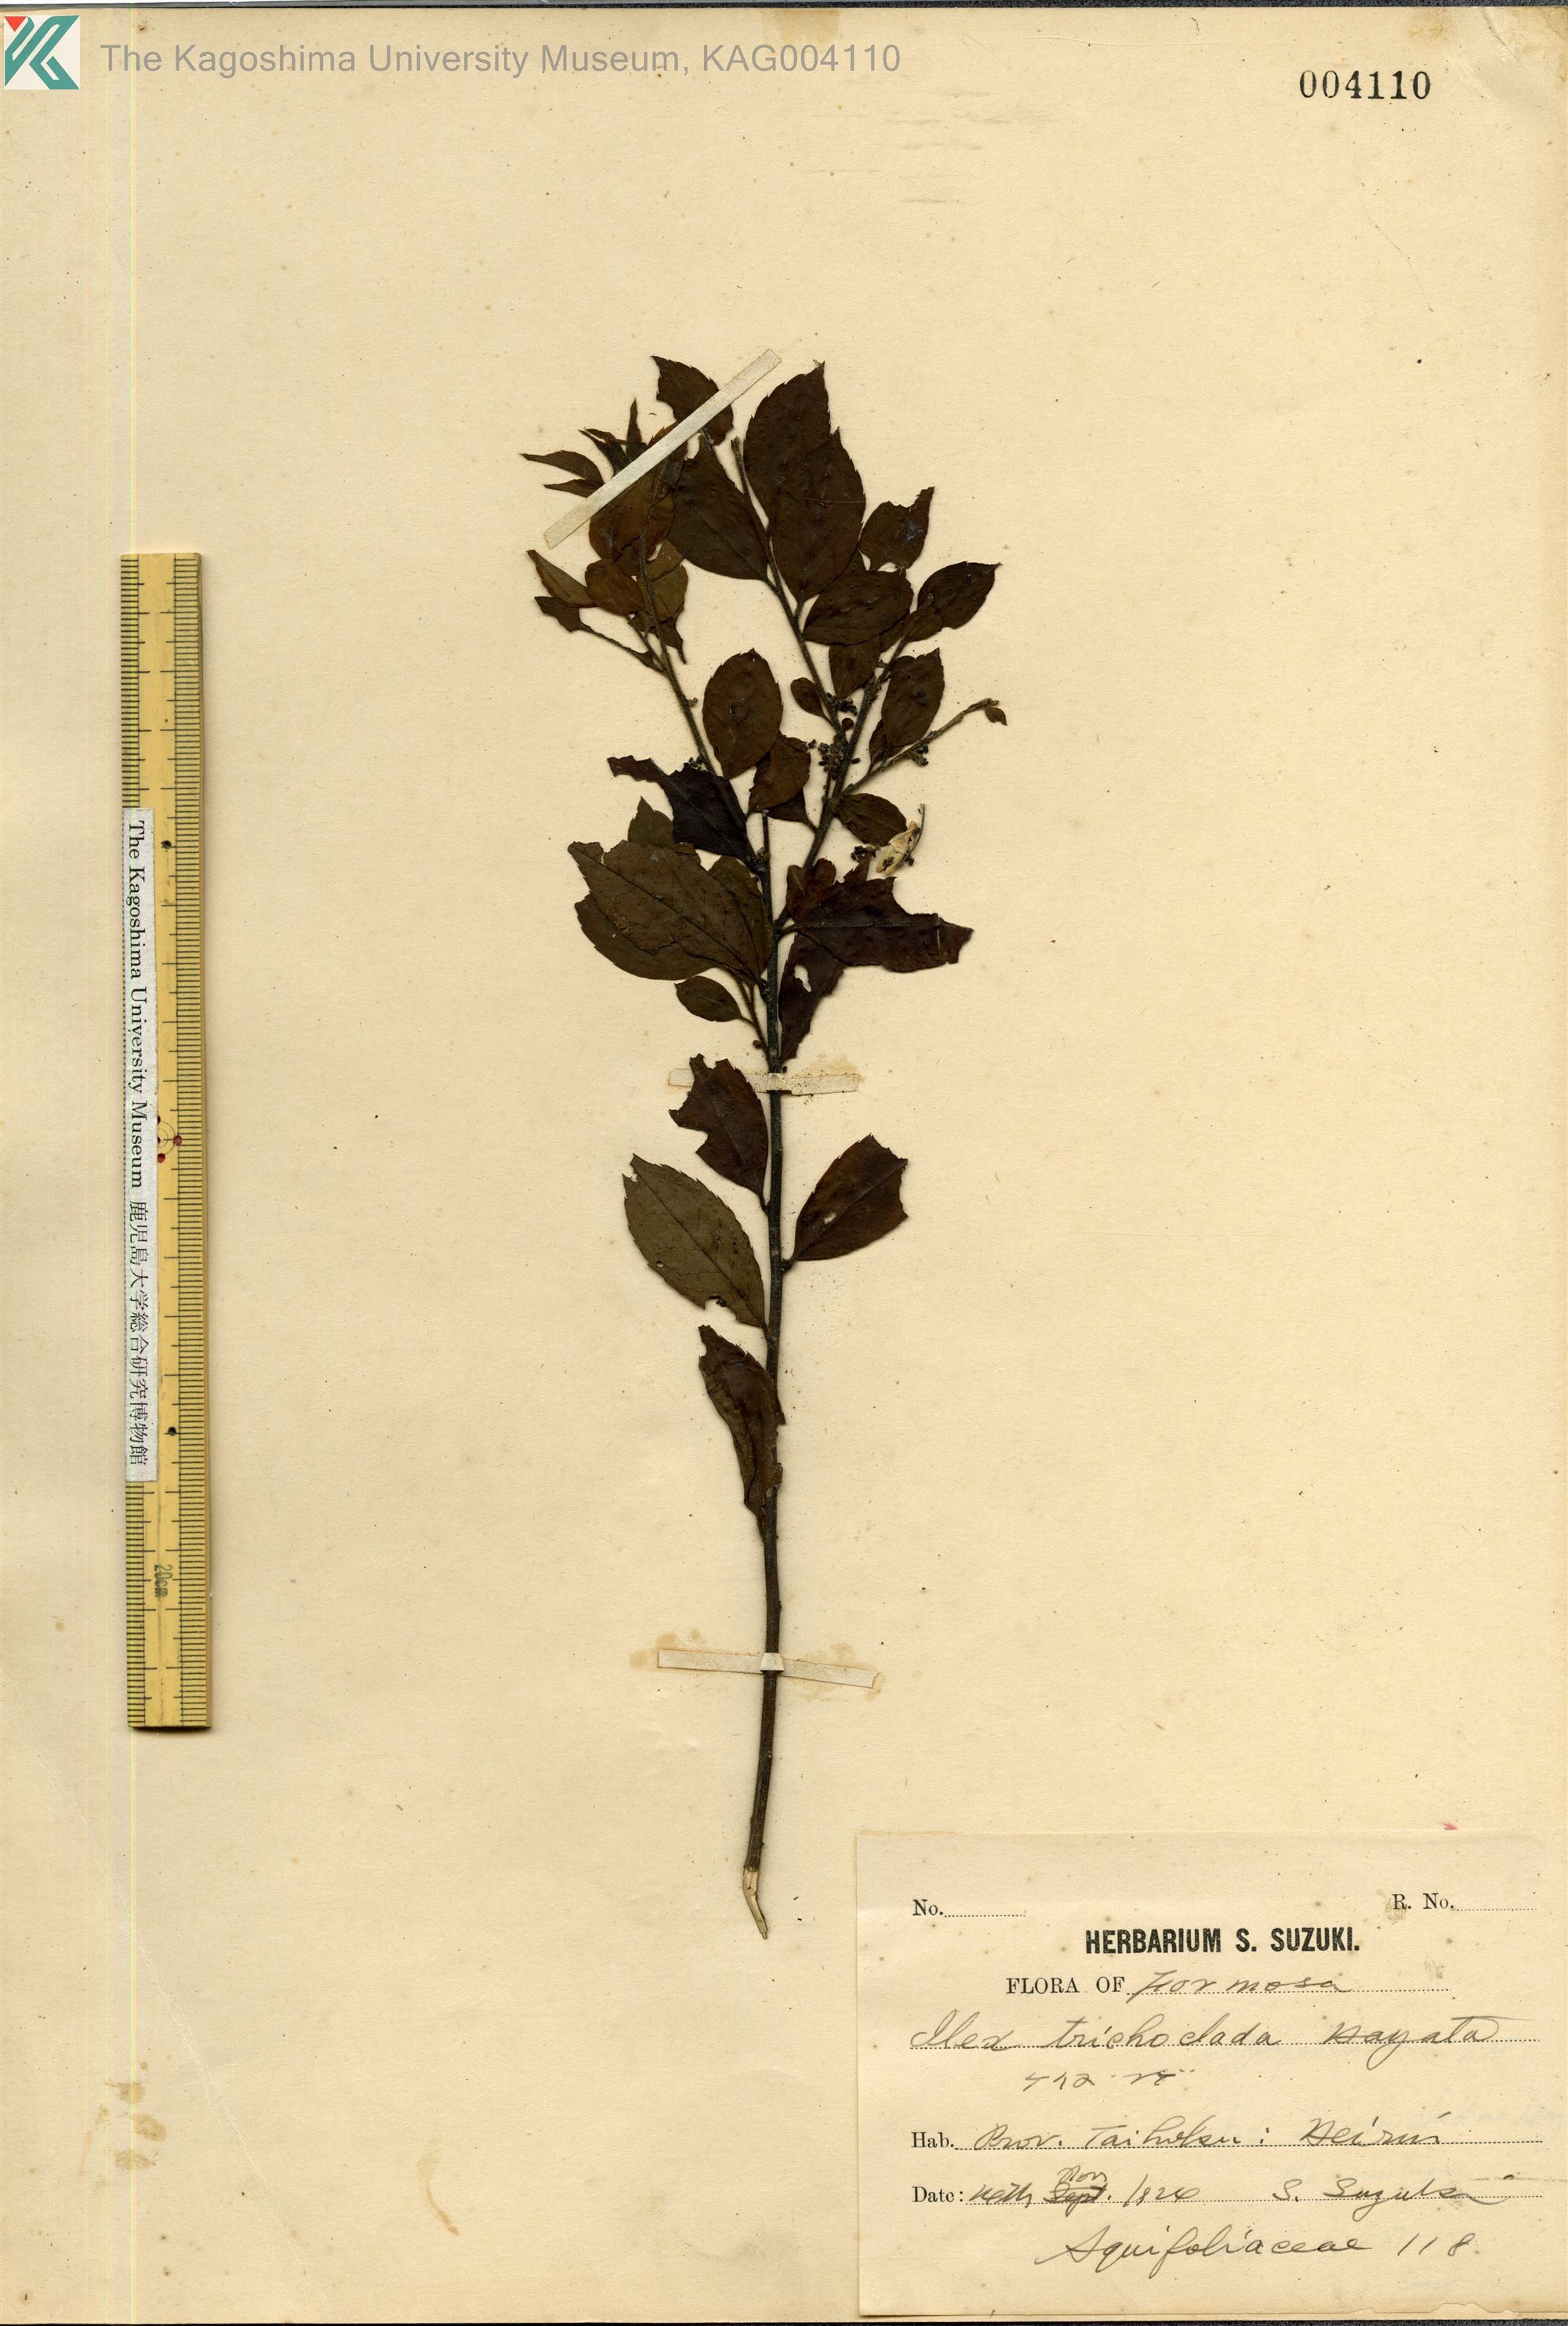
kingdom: Plantae
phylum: Tracheophyta
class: Magnoliopsida
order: Aquifoliales
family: Aquifoliaceae
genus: Ilex
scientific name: Ilex trichoclada
